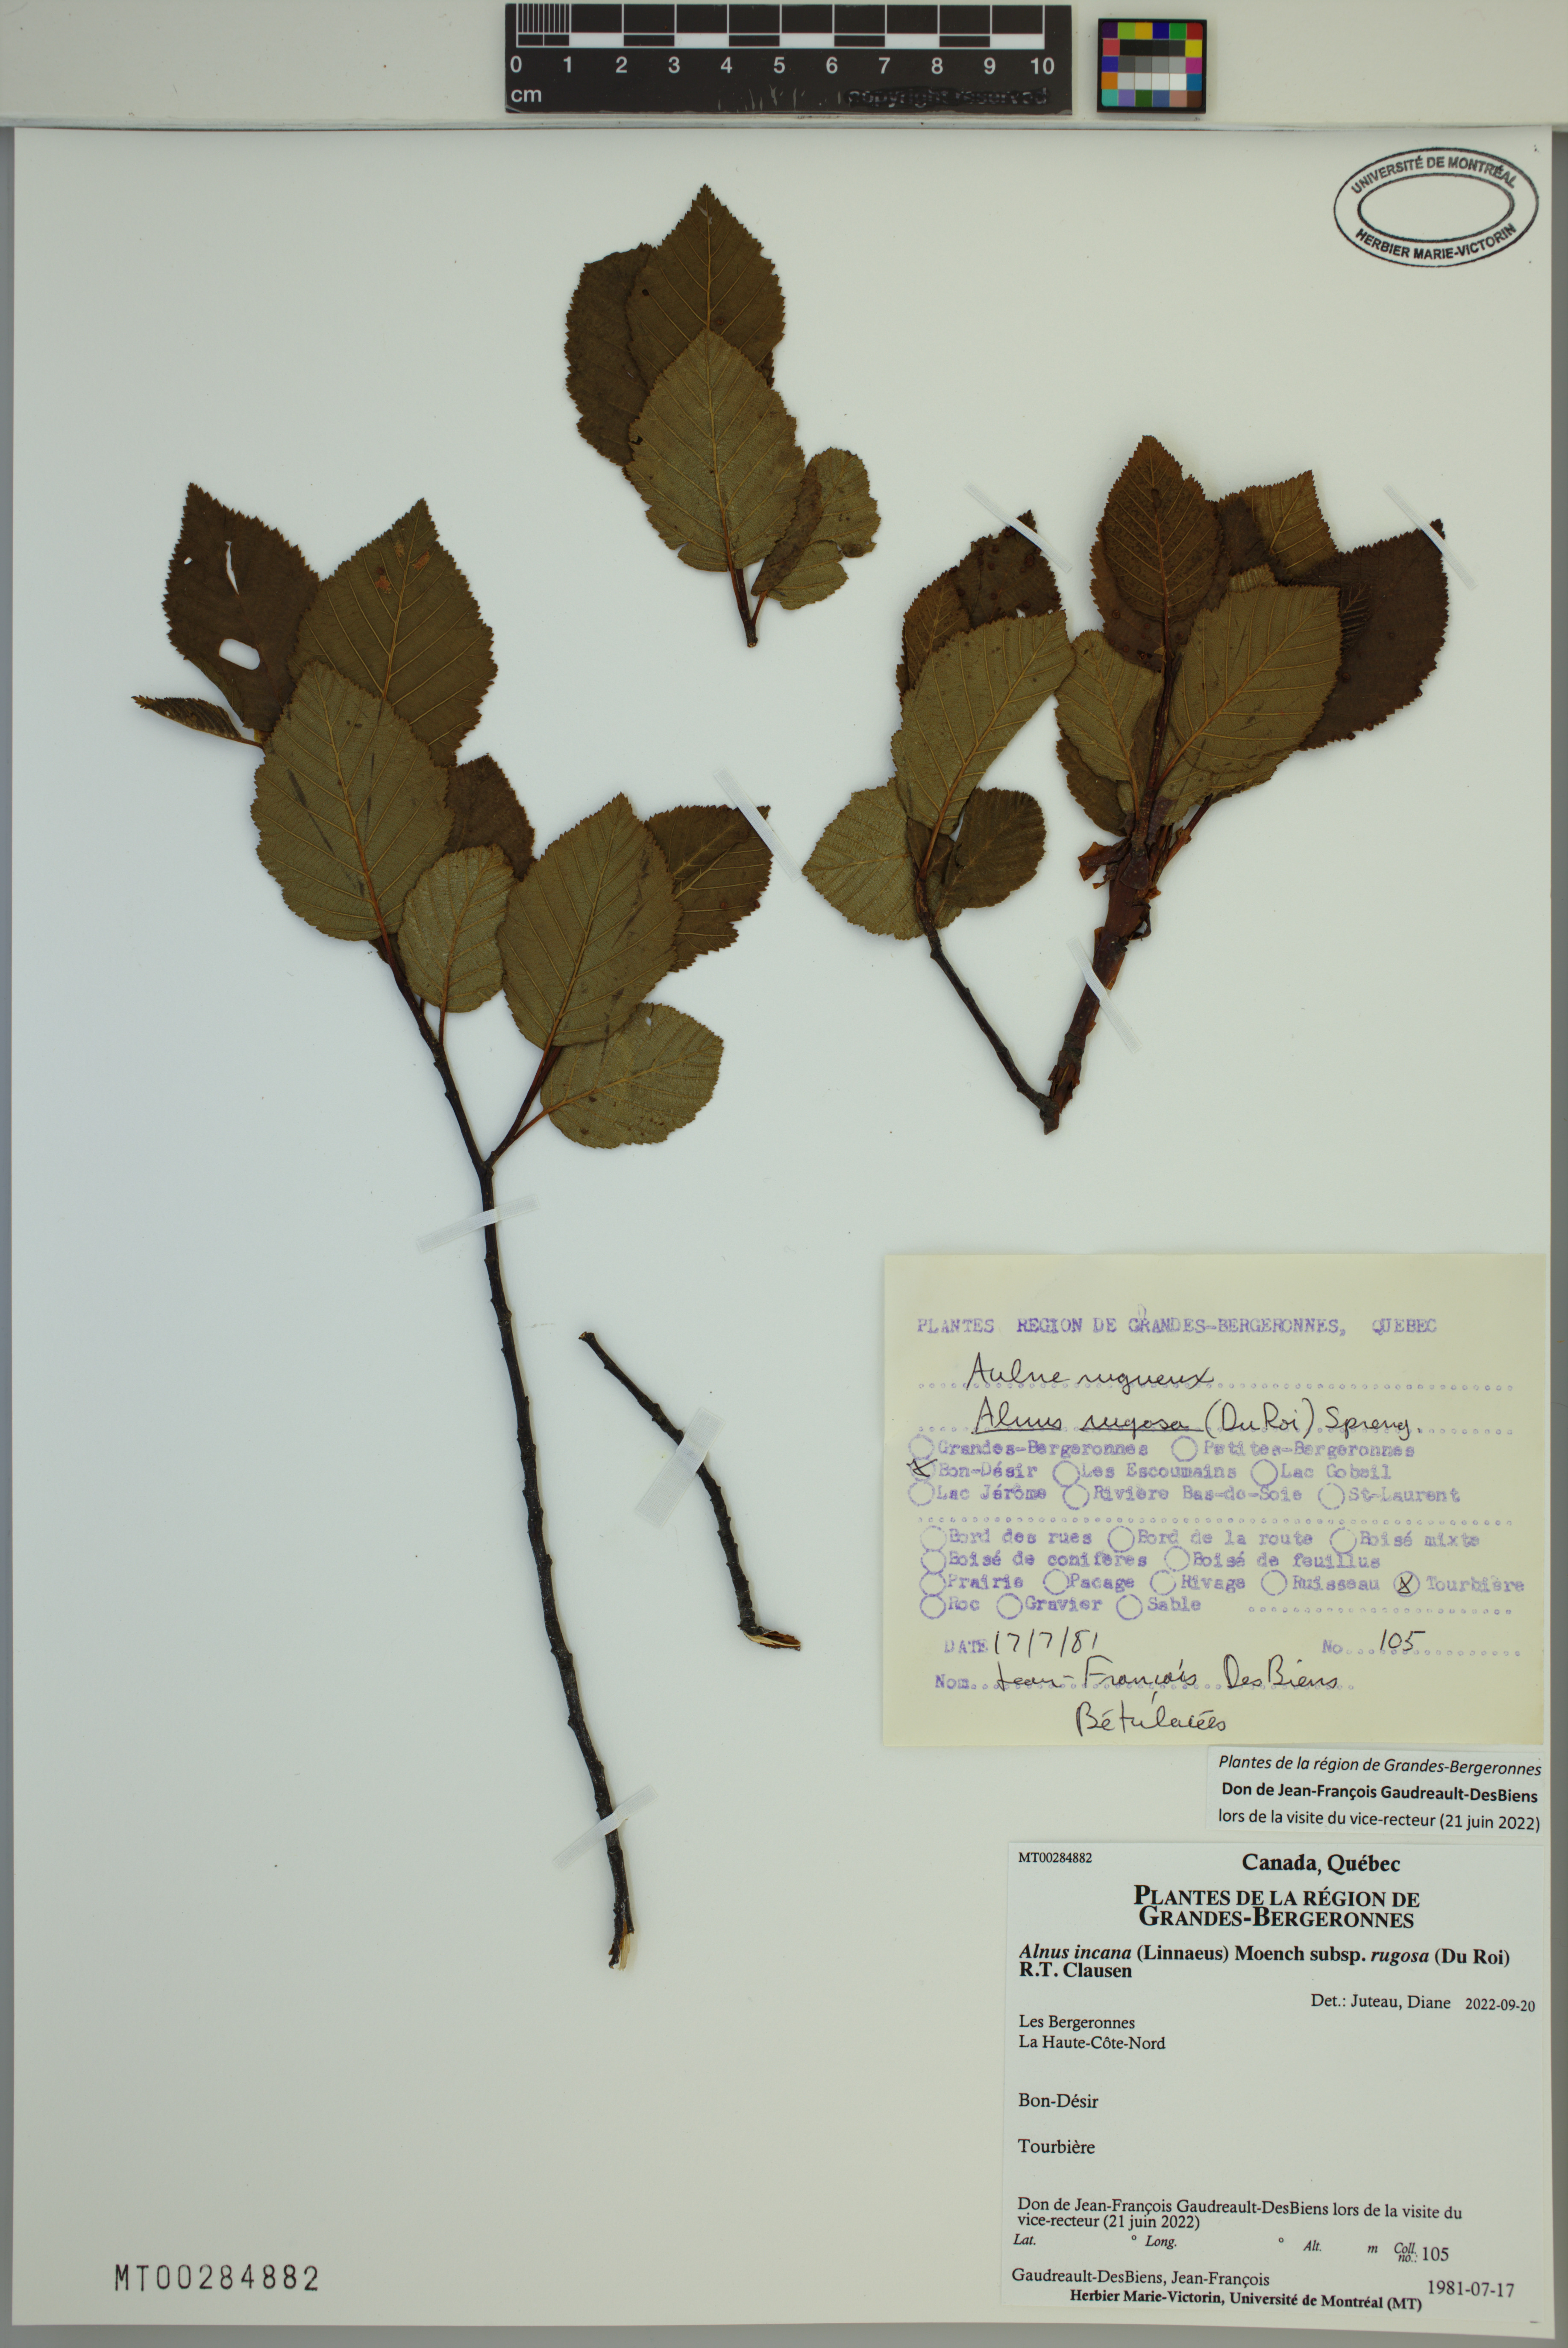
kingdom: Plantae
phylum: Tracheophyta
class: Magnoliopsida
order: Fagales
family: Betulaceae
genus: Alnus
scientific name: Alnus incana
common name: Grey alder
